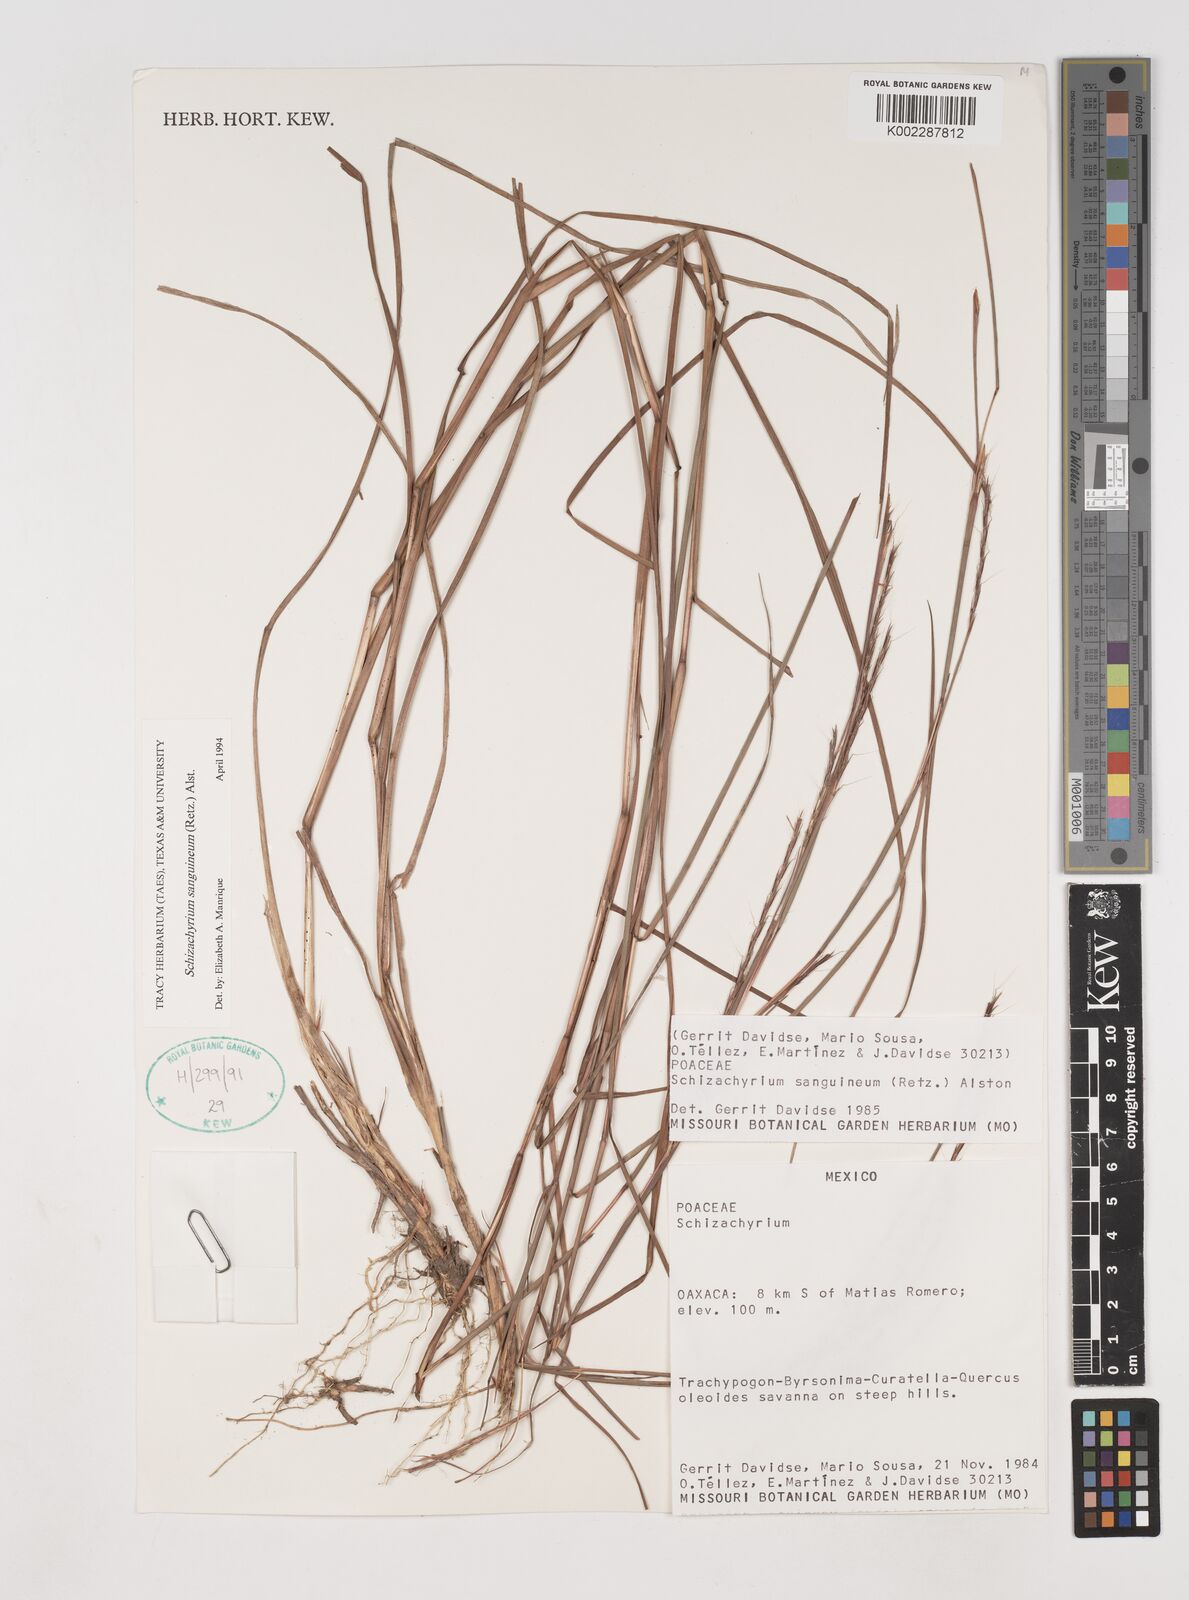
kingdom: Plantae
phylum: Tracheophyta
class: Liliopsida
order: Poales
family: Poaceae
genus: Schizachyrium
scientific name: Schizachyrium sanguineum
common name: Crimson bluestem
